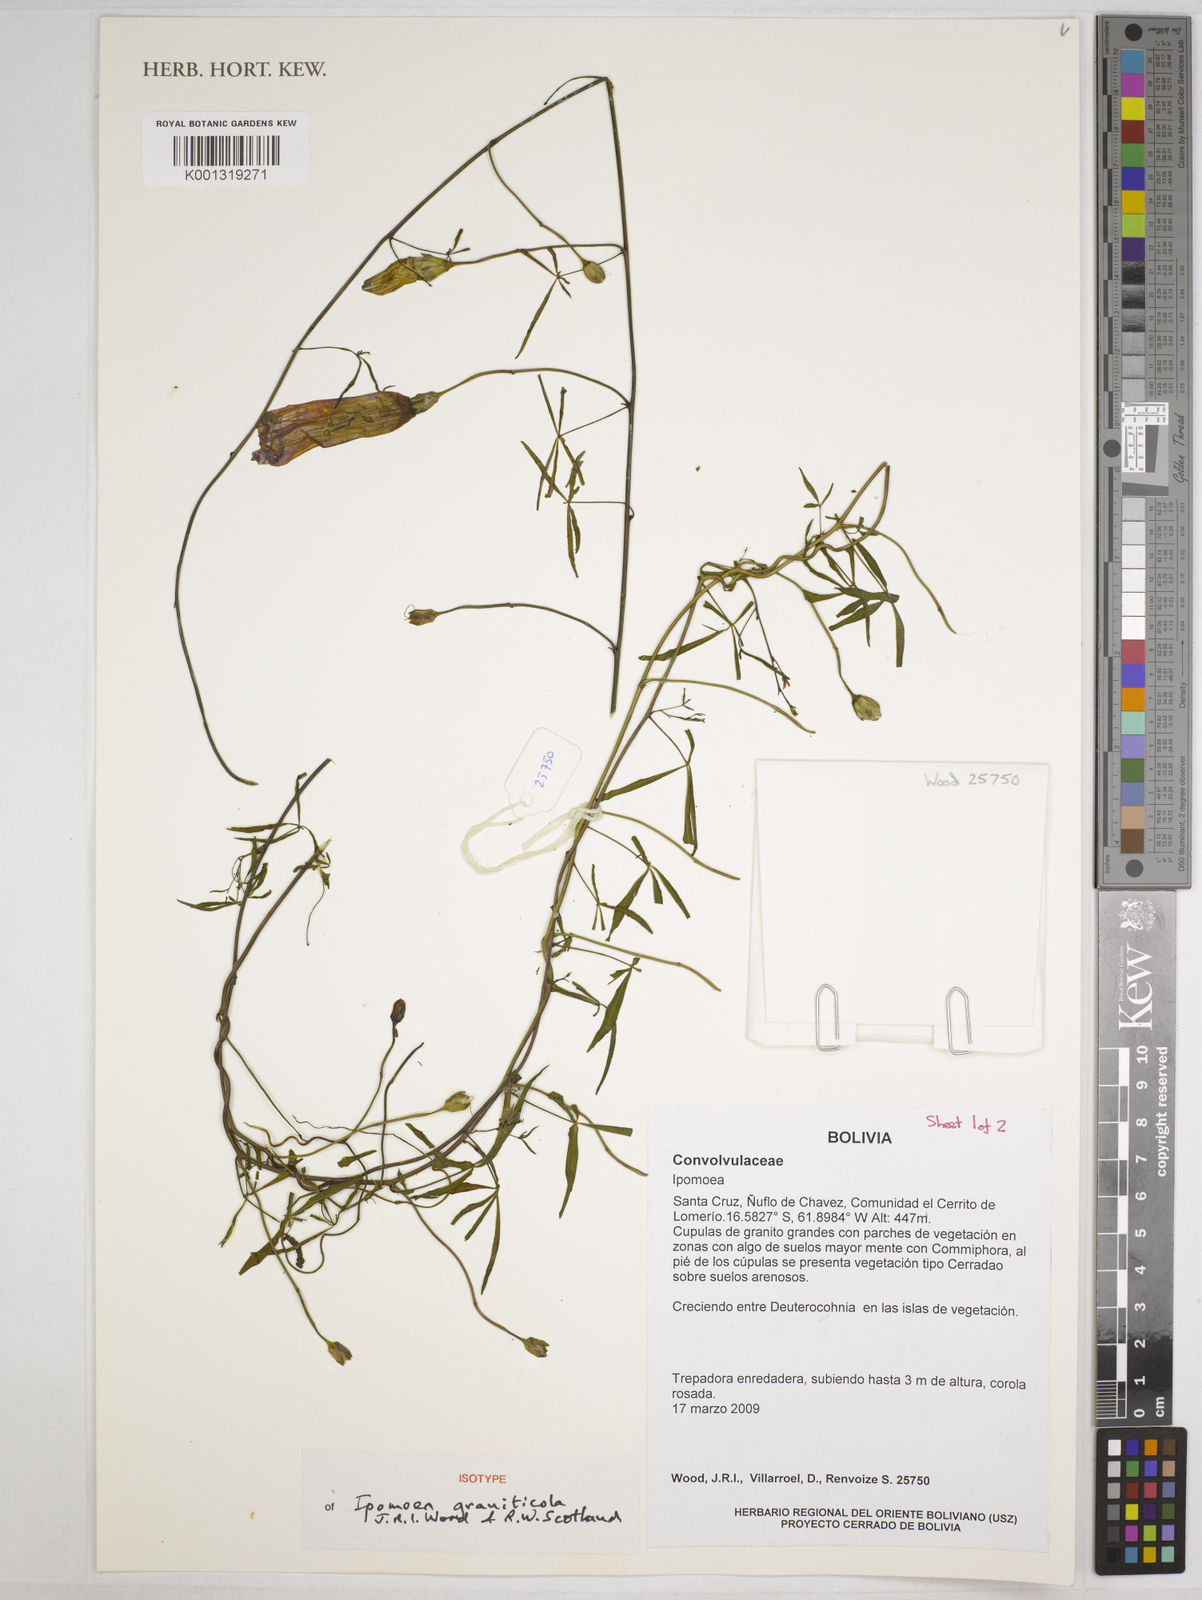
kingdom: Plantae
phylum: Tracheophyta
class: Magnoliopsida
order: Solanales
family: Convolvulaceae
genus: Ipomoea
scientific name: Ipomoea graniticola
